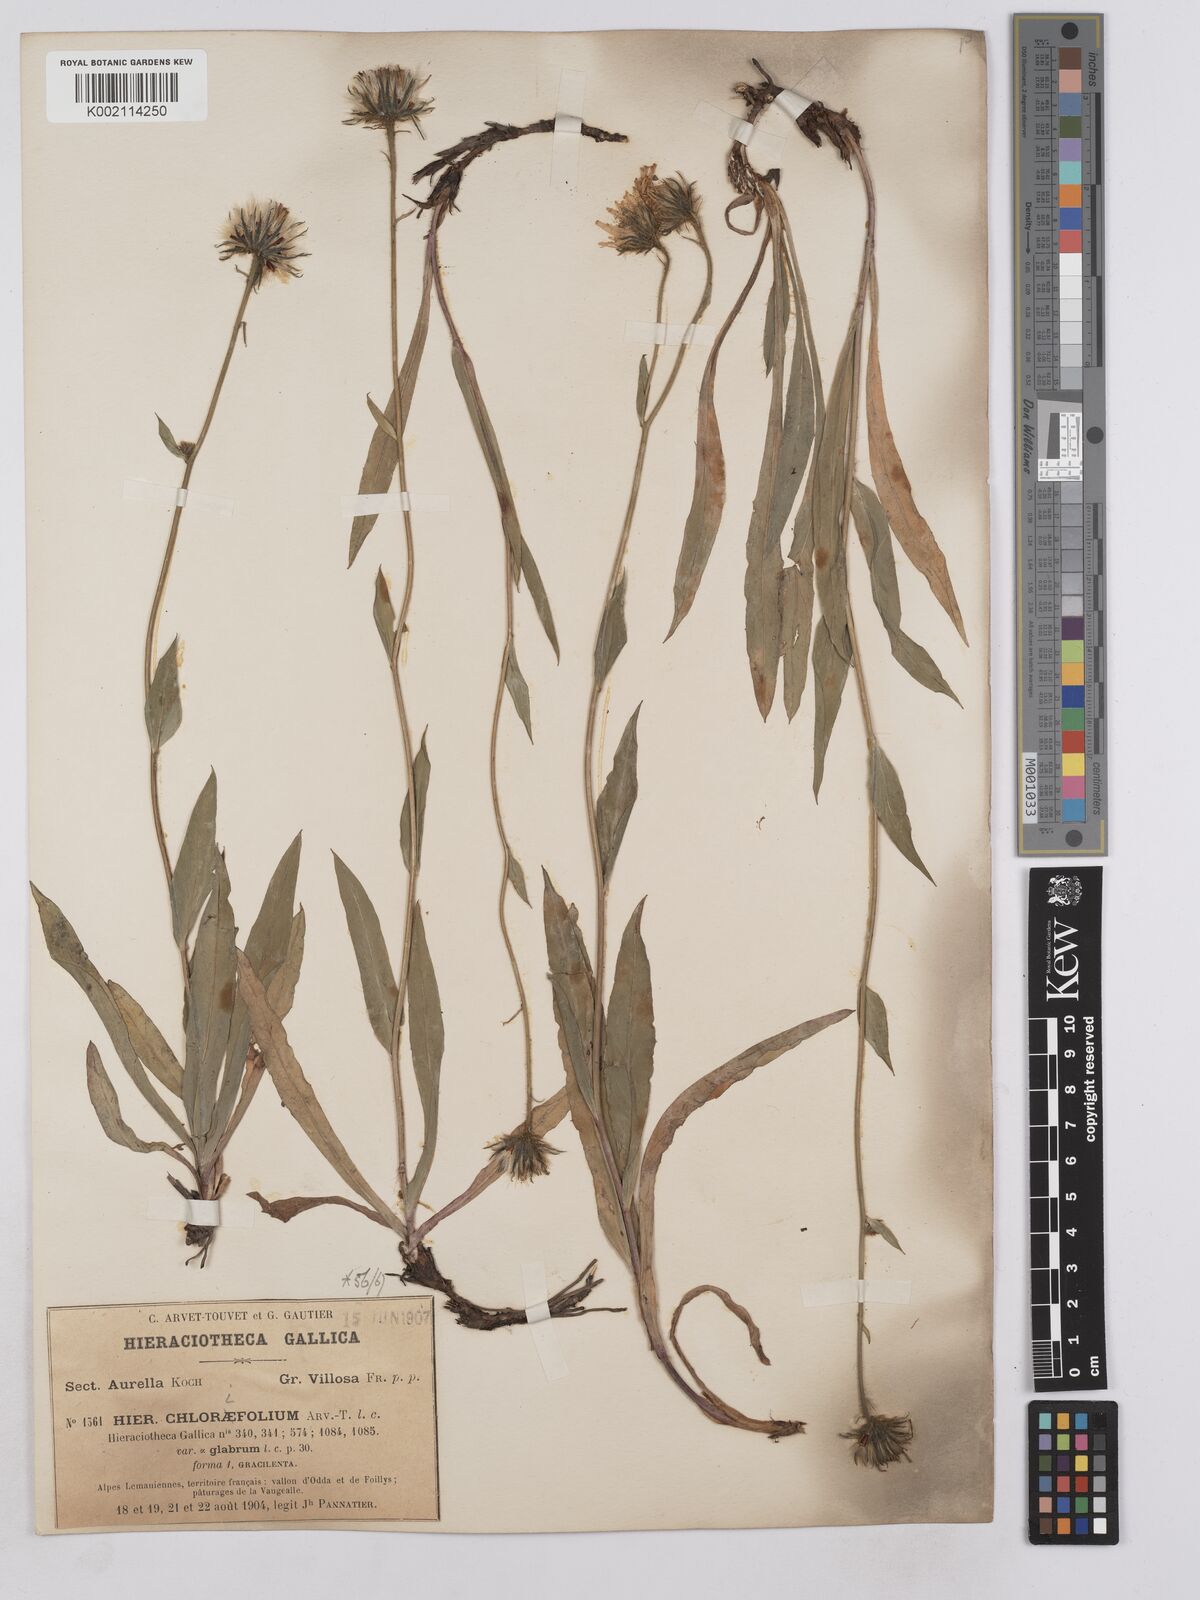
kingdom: Plantae
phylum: Tracheophyta
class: Magnoliopsida
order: Asterales
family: Asteraceae
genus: Hieracium
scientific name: Hieracium chlorifolium
